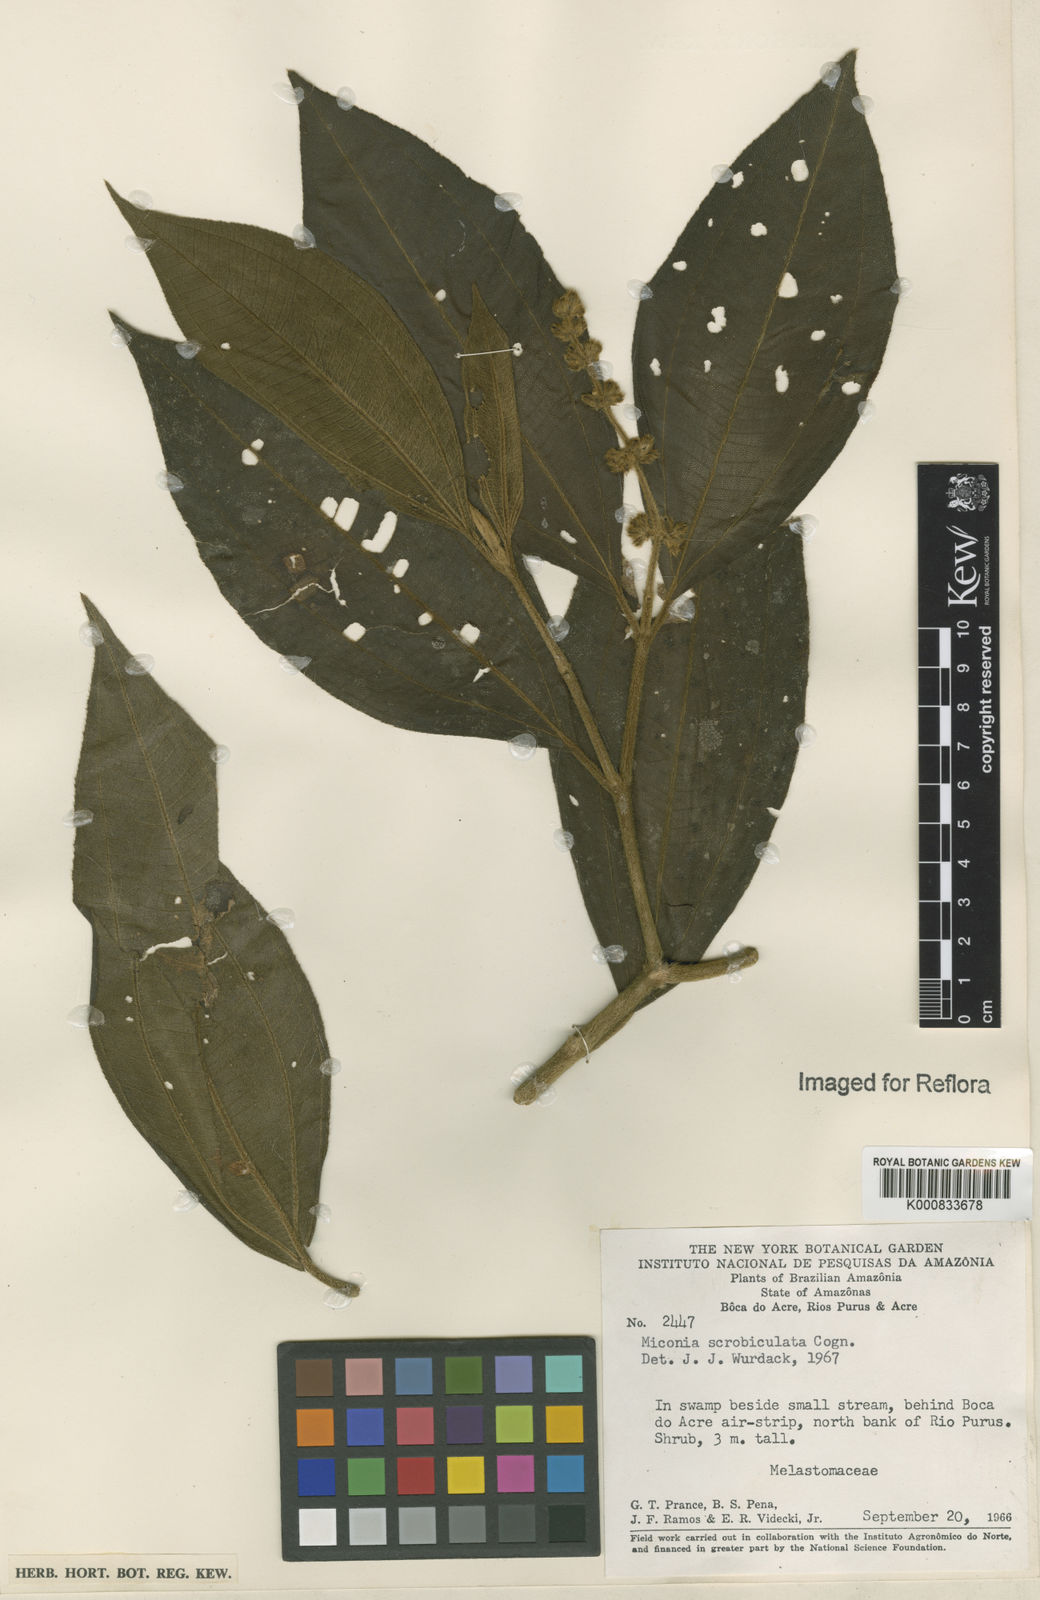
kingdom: Plantae
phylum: Tracheophyta
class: Magnoliopsida
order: Myrtales
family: Melastomataceae
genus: Miconia
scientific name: Miconia radulifolia
